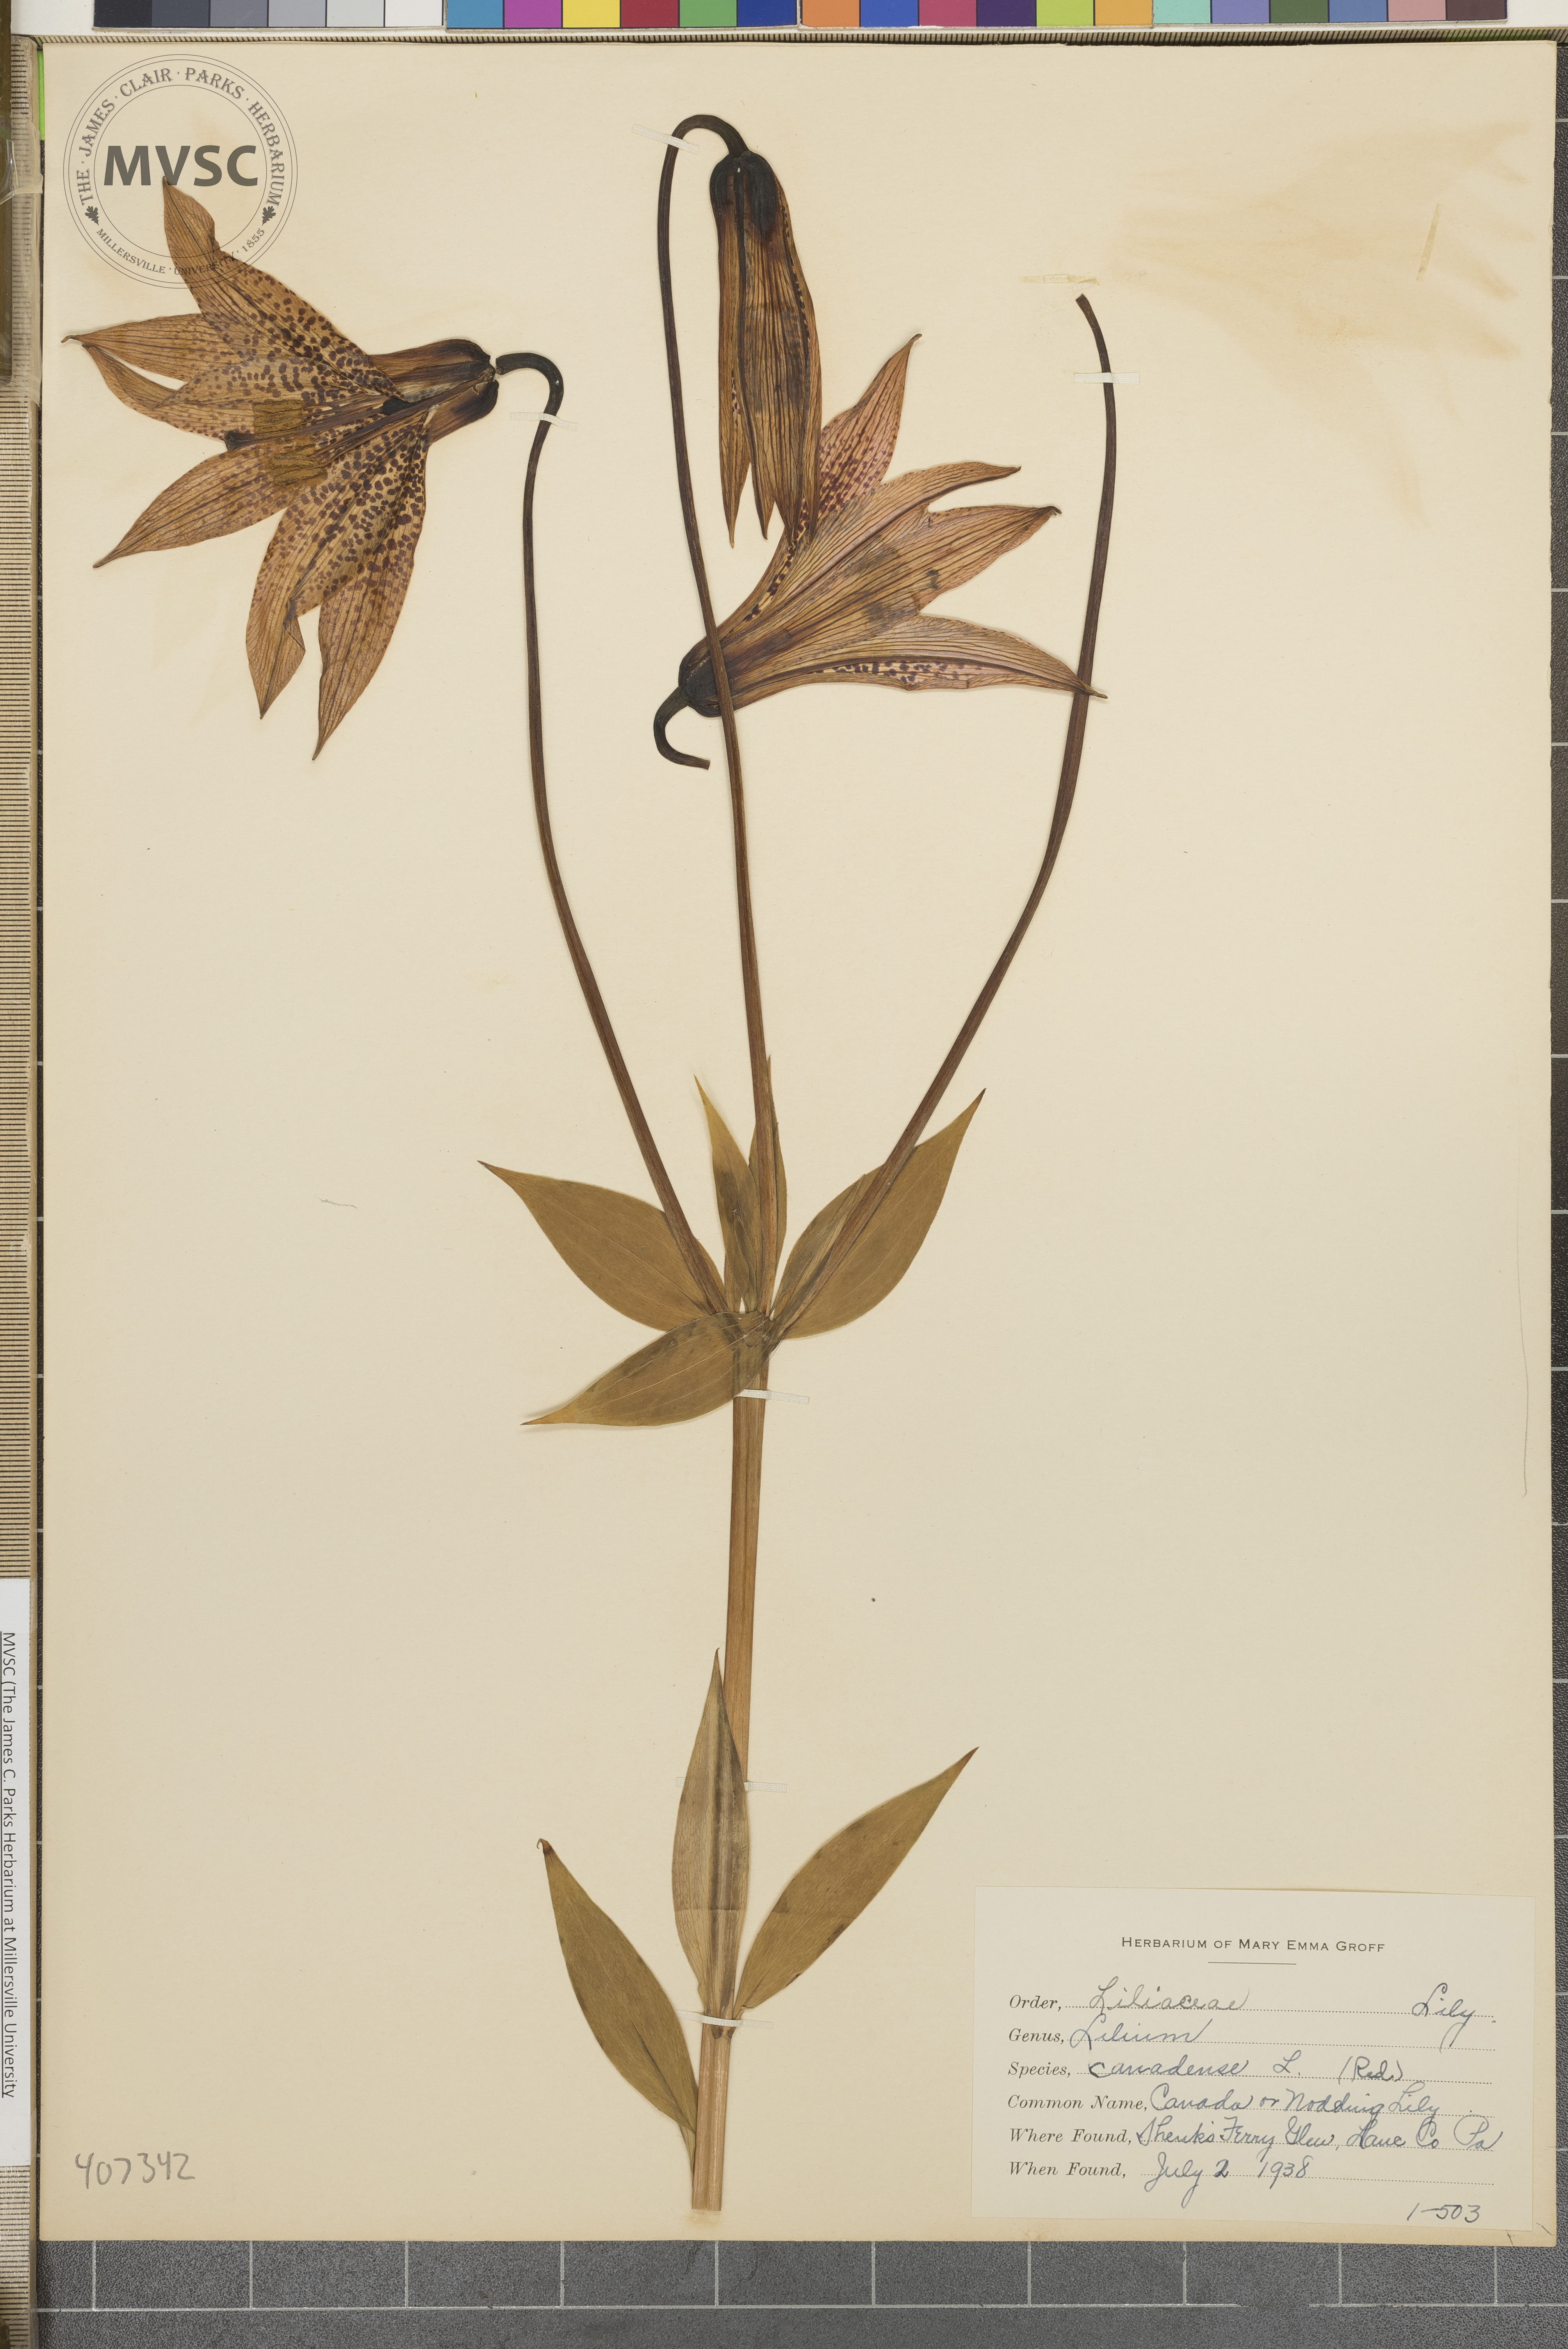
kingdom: Plantae
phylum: Tracheophyta
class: Liliopsida
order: Liliales
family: Liliaceae
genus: Lilium
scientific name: Lilium canadense
